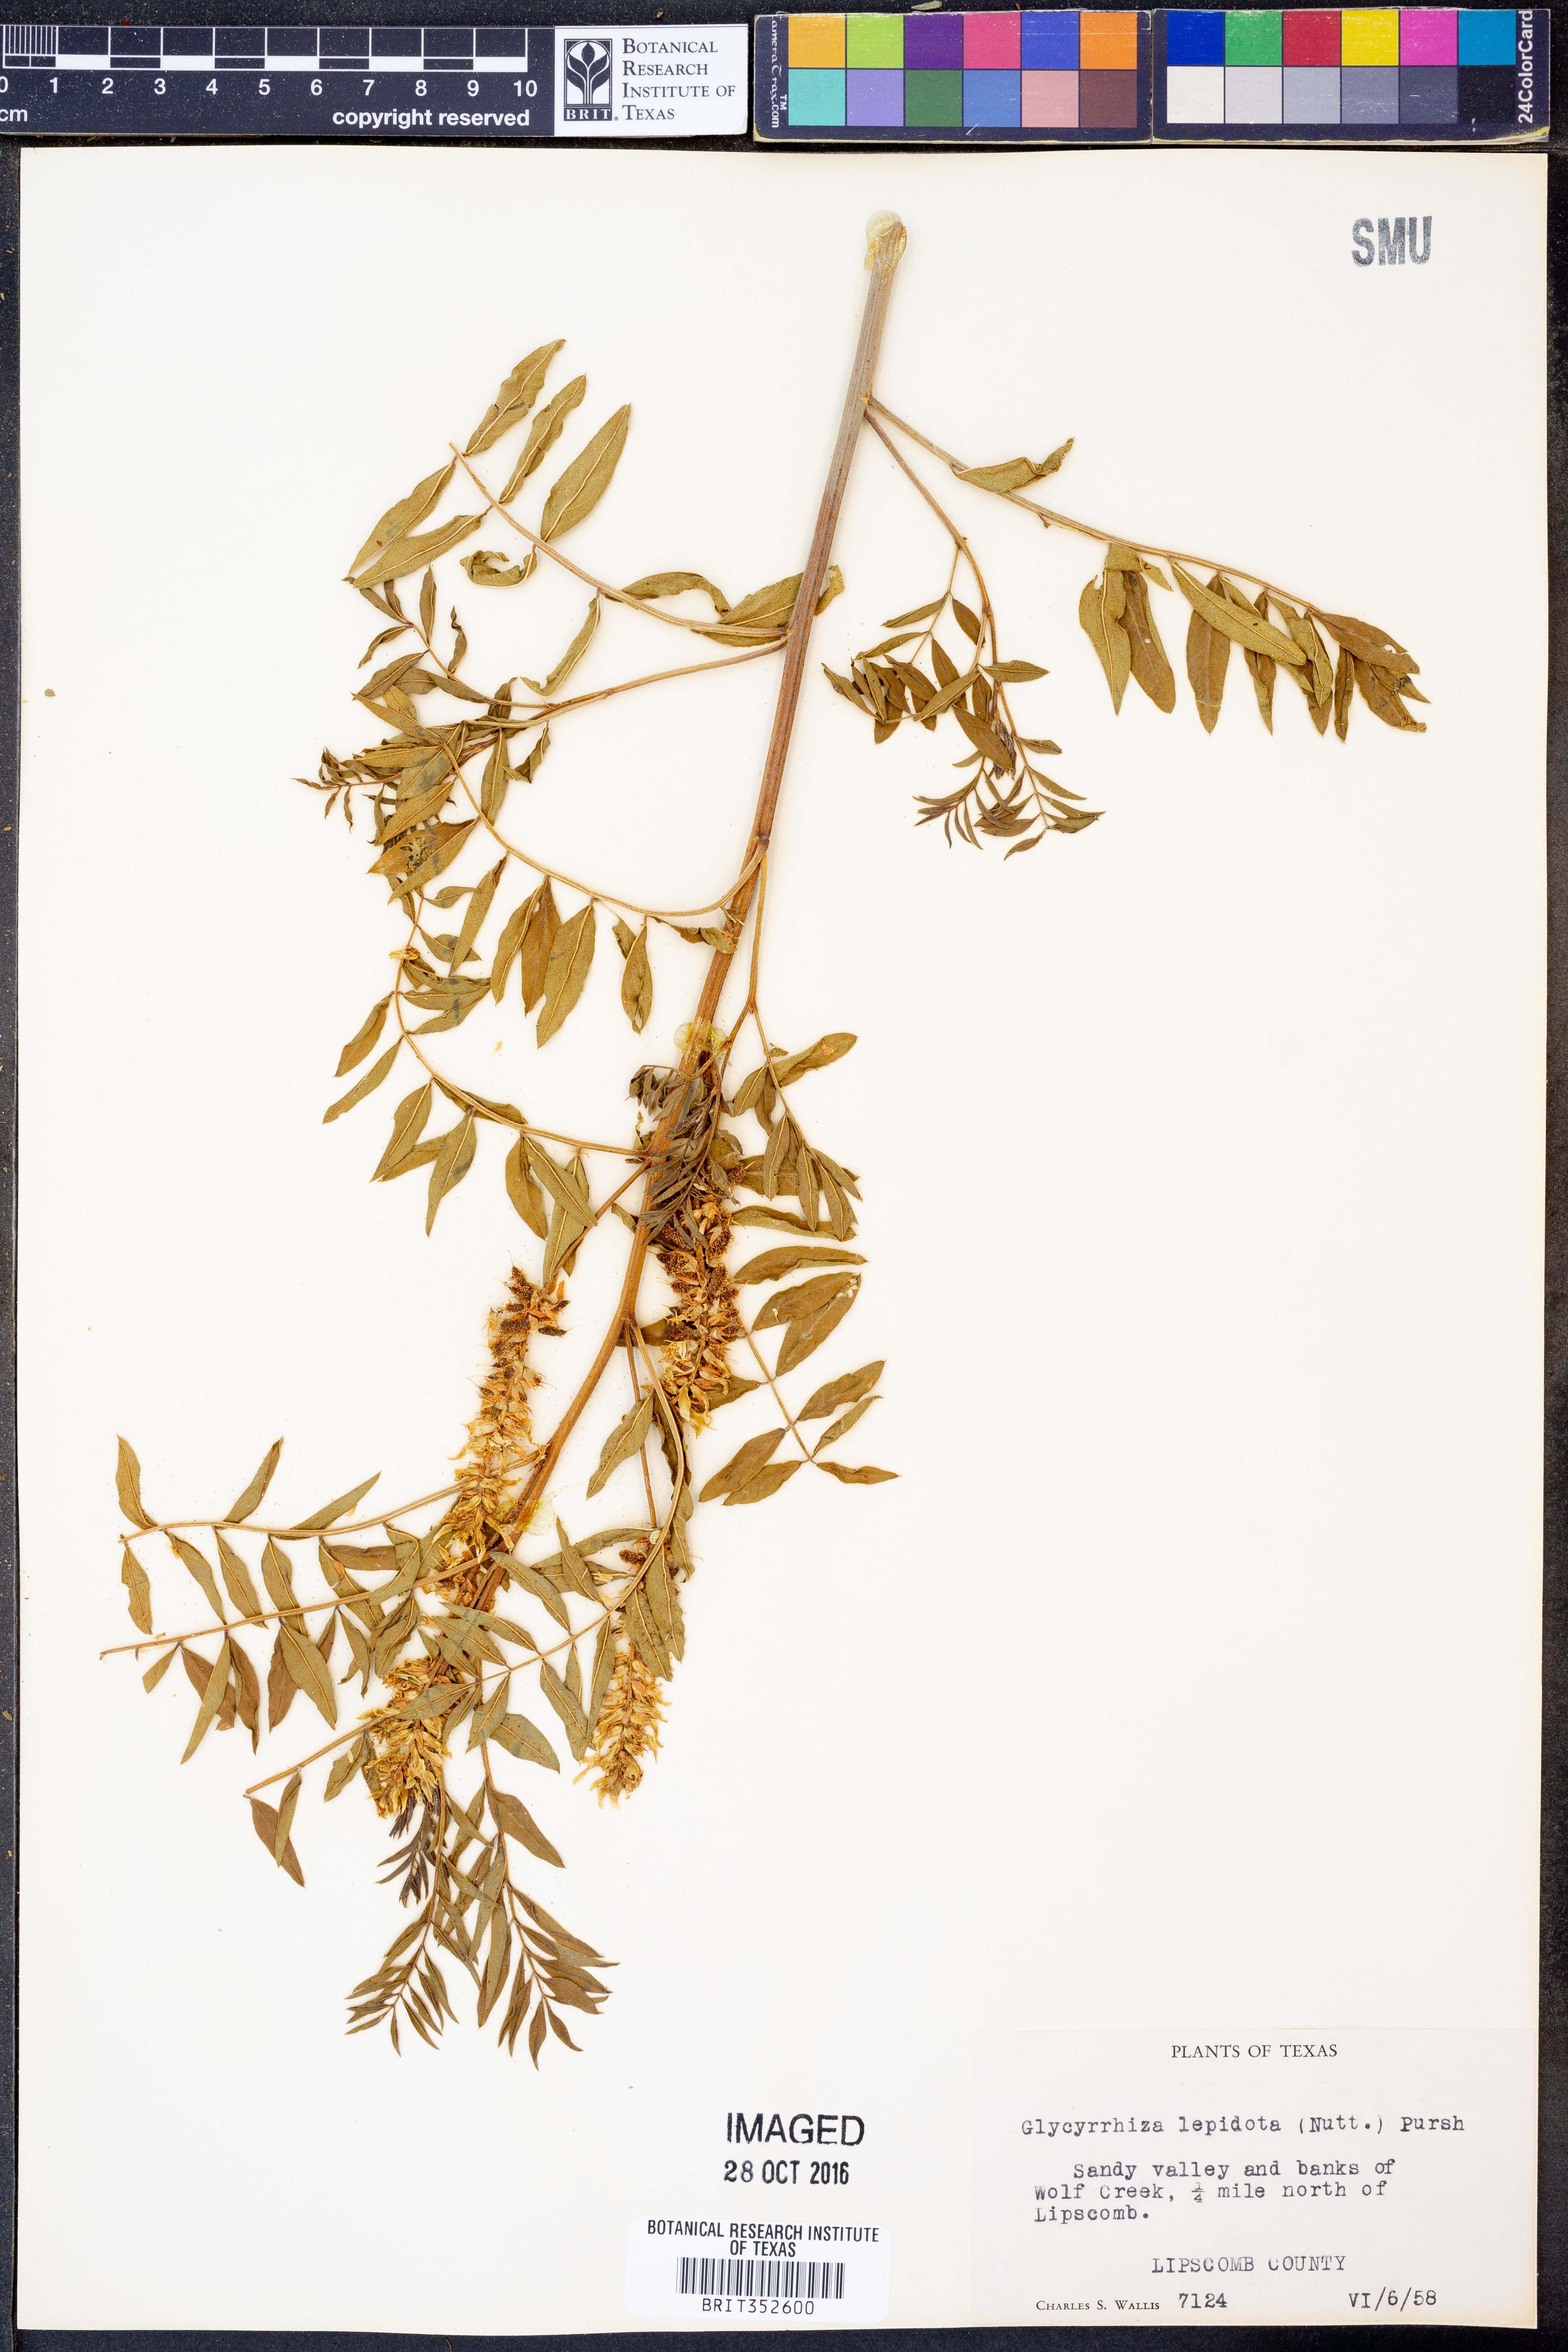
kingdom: Plantae
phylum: Tracheophyta
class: Magnoliopsida
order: Fabales
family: Fabaceae
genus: Glycyrrhiza
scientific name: Glycyrrhiza lepidota
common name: American liquorice
